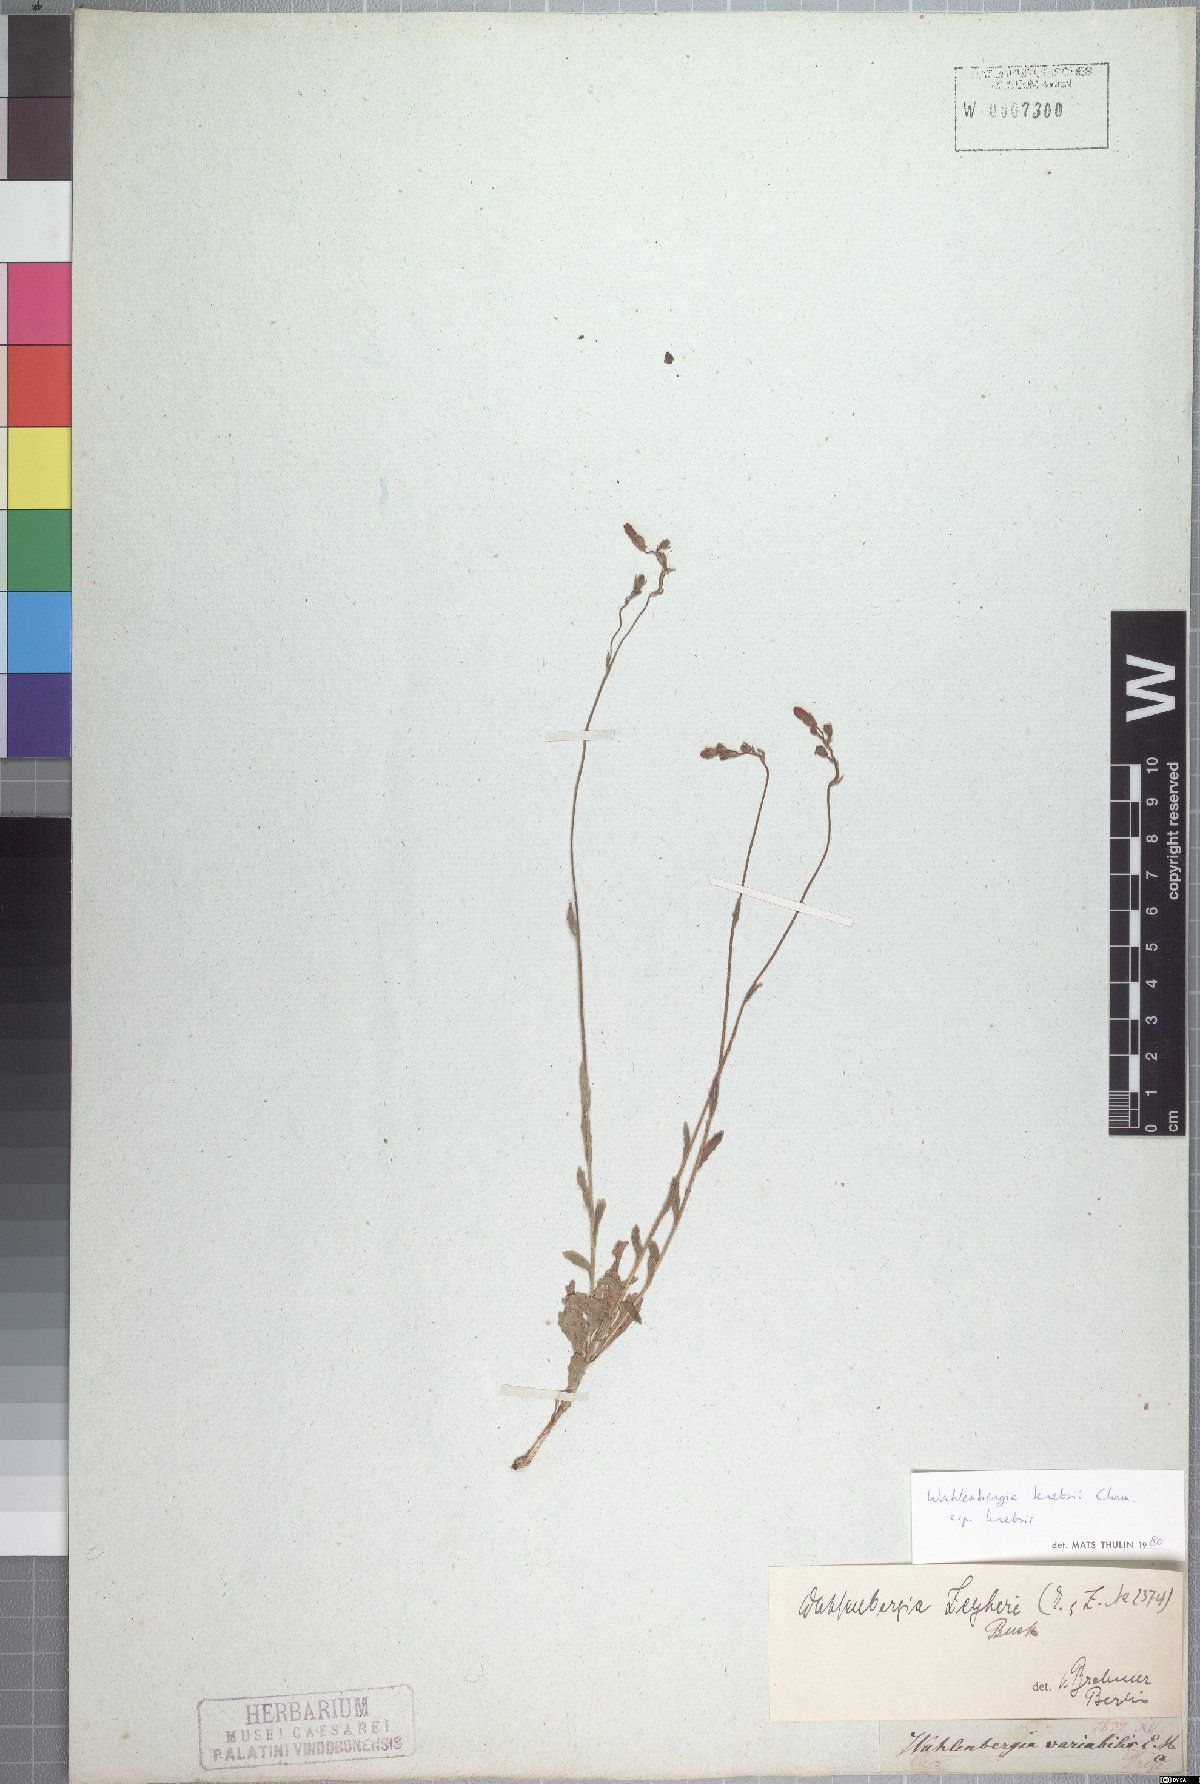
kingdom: Plantae
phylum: Tracheophyta
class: Magnoliopsida
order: Asterales
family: Campanulaceae
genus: Wahlenbergia
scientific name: Wahlenbergia krebsii
